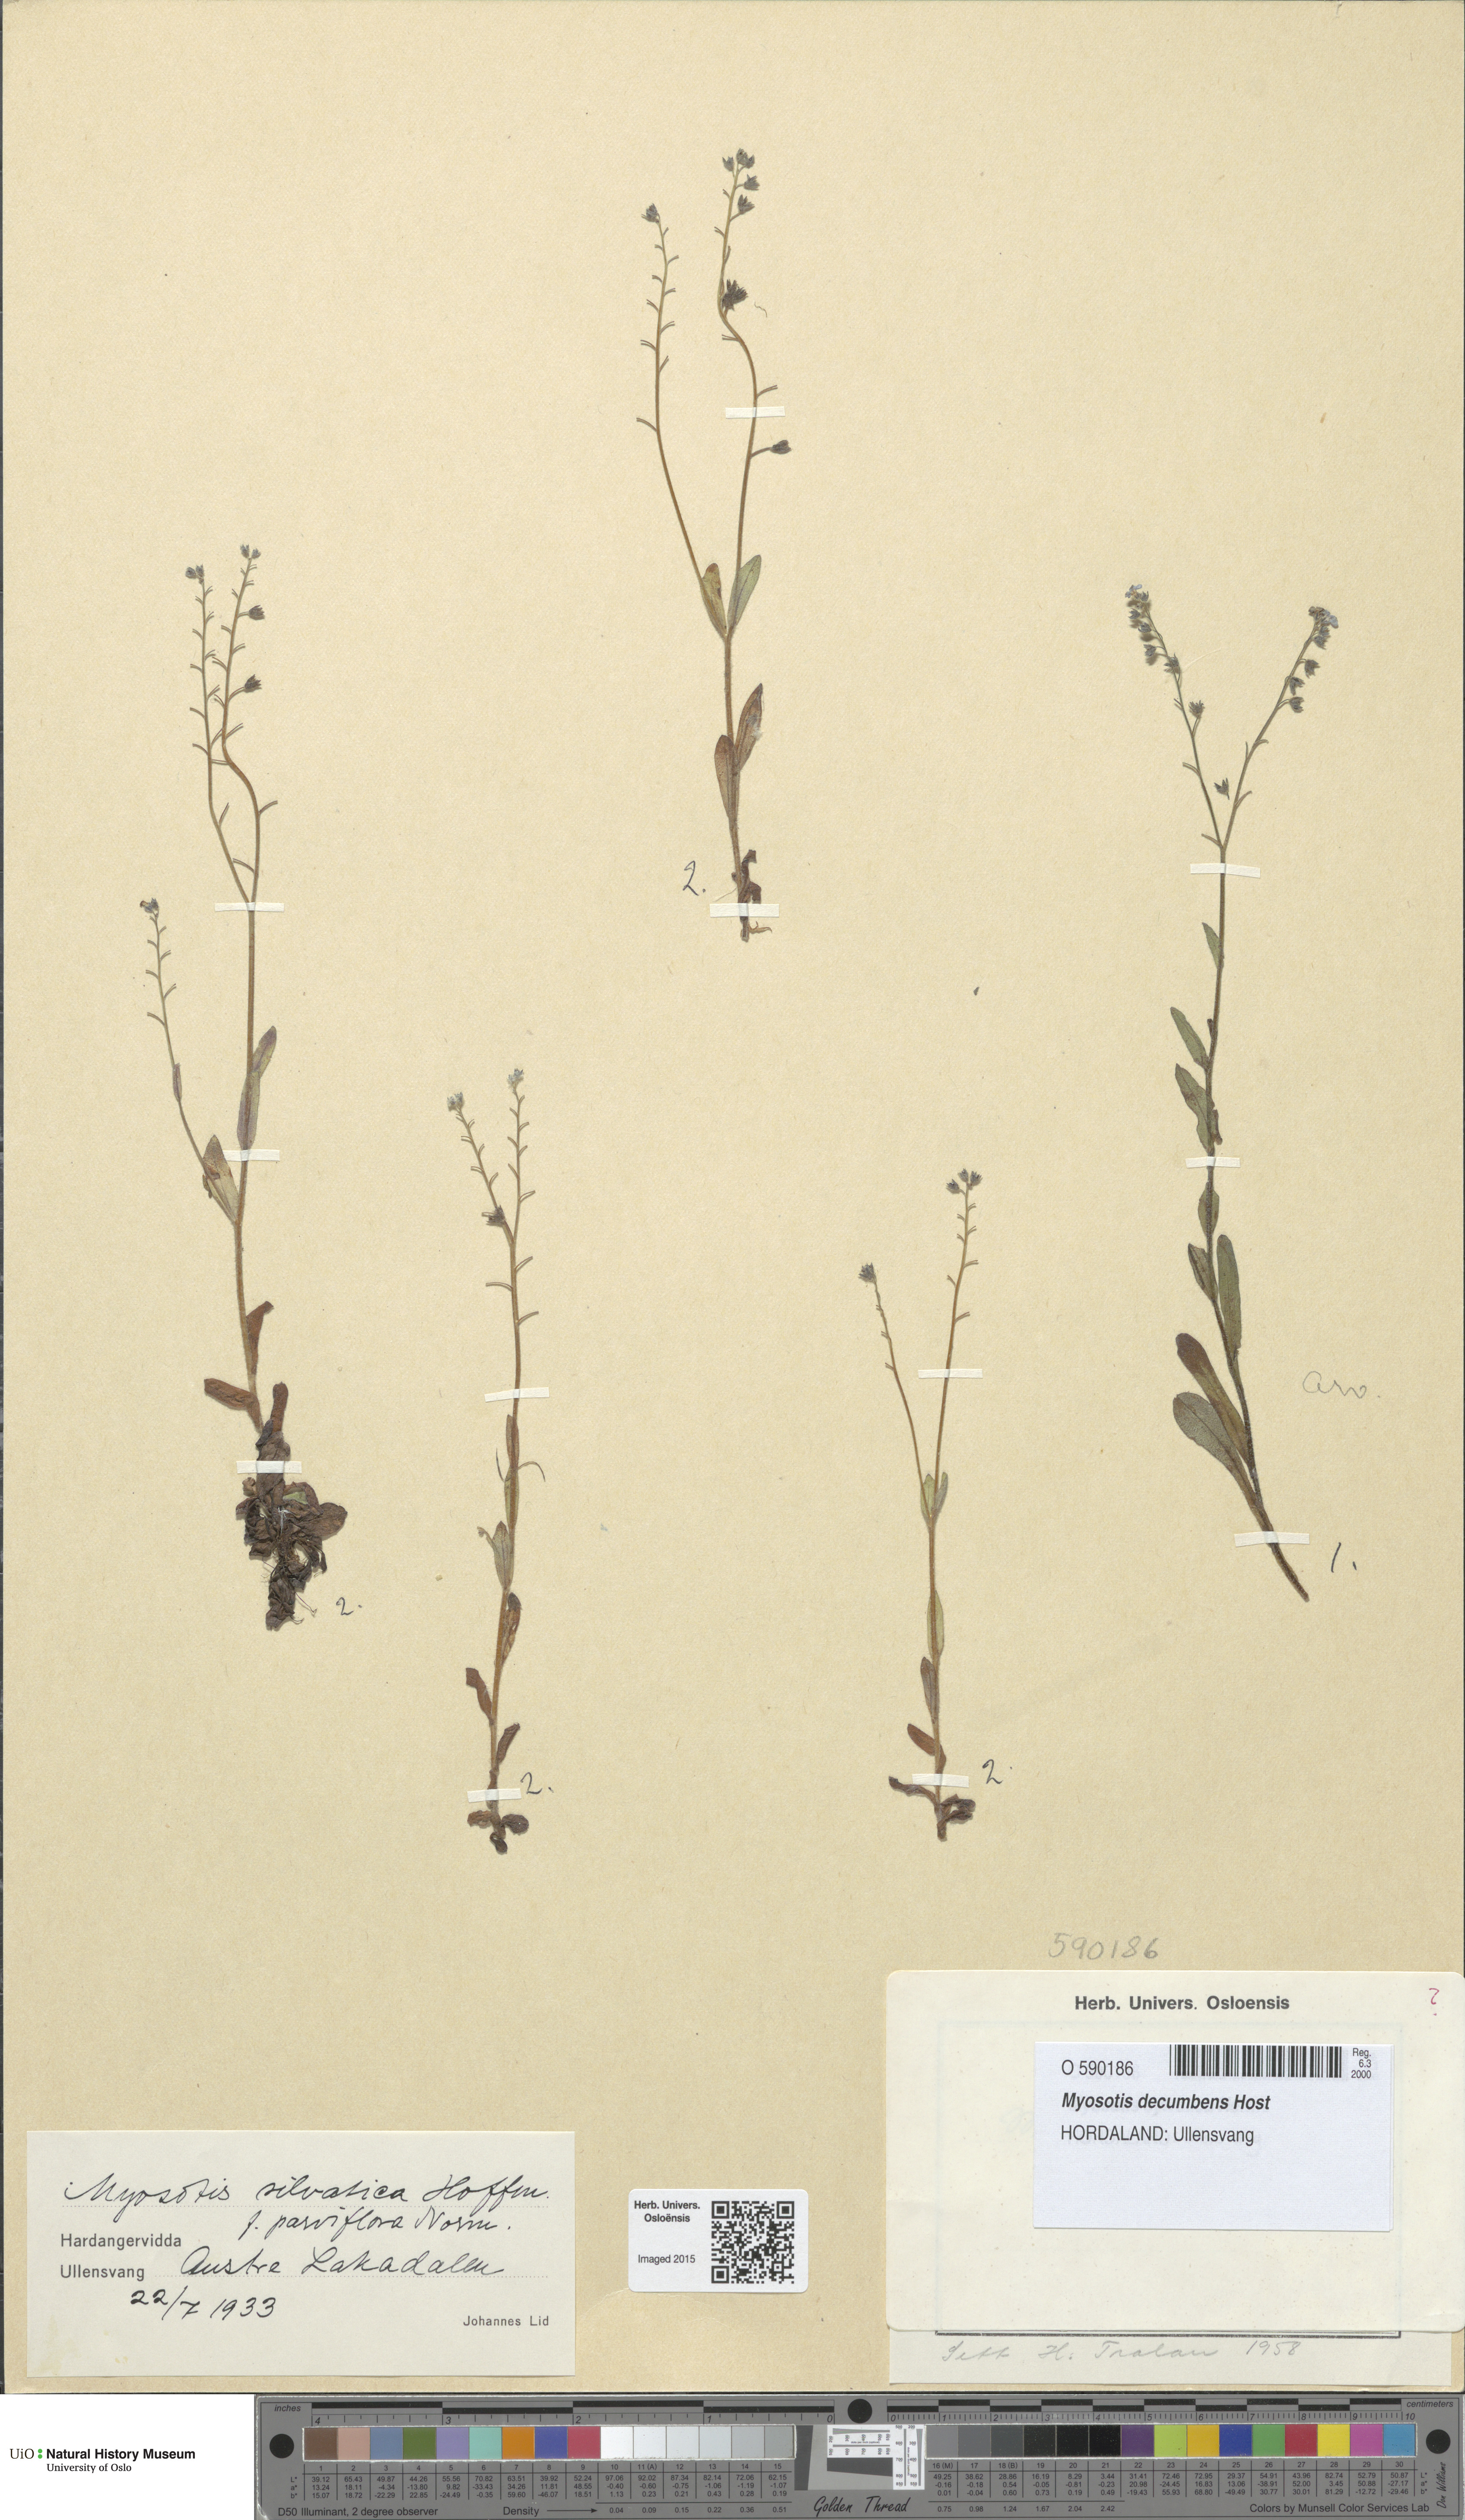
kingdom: Plantae
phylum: Tracheophyta
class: Magnoliopsida
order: Boraginales
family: Boraginaceae
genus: Myosotis
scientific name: Myosotis decumbens
